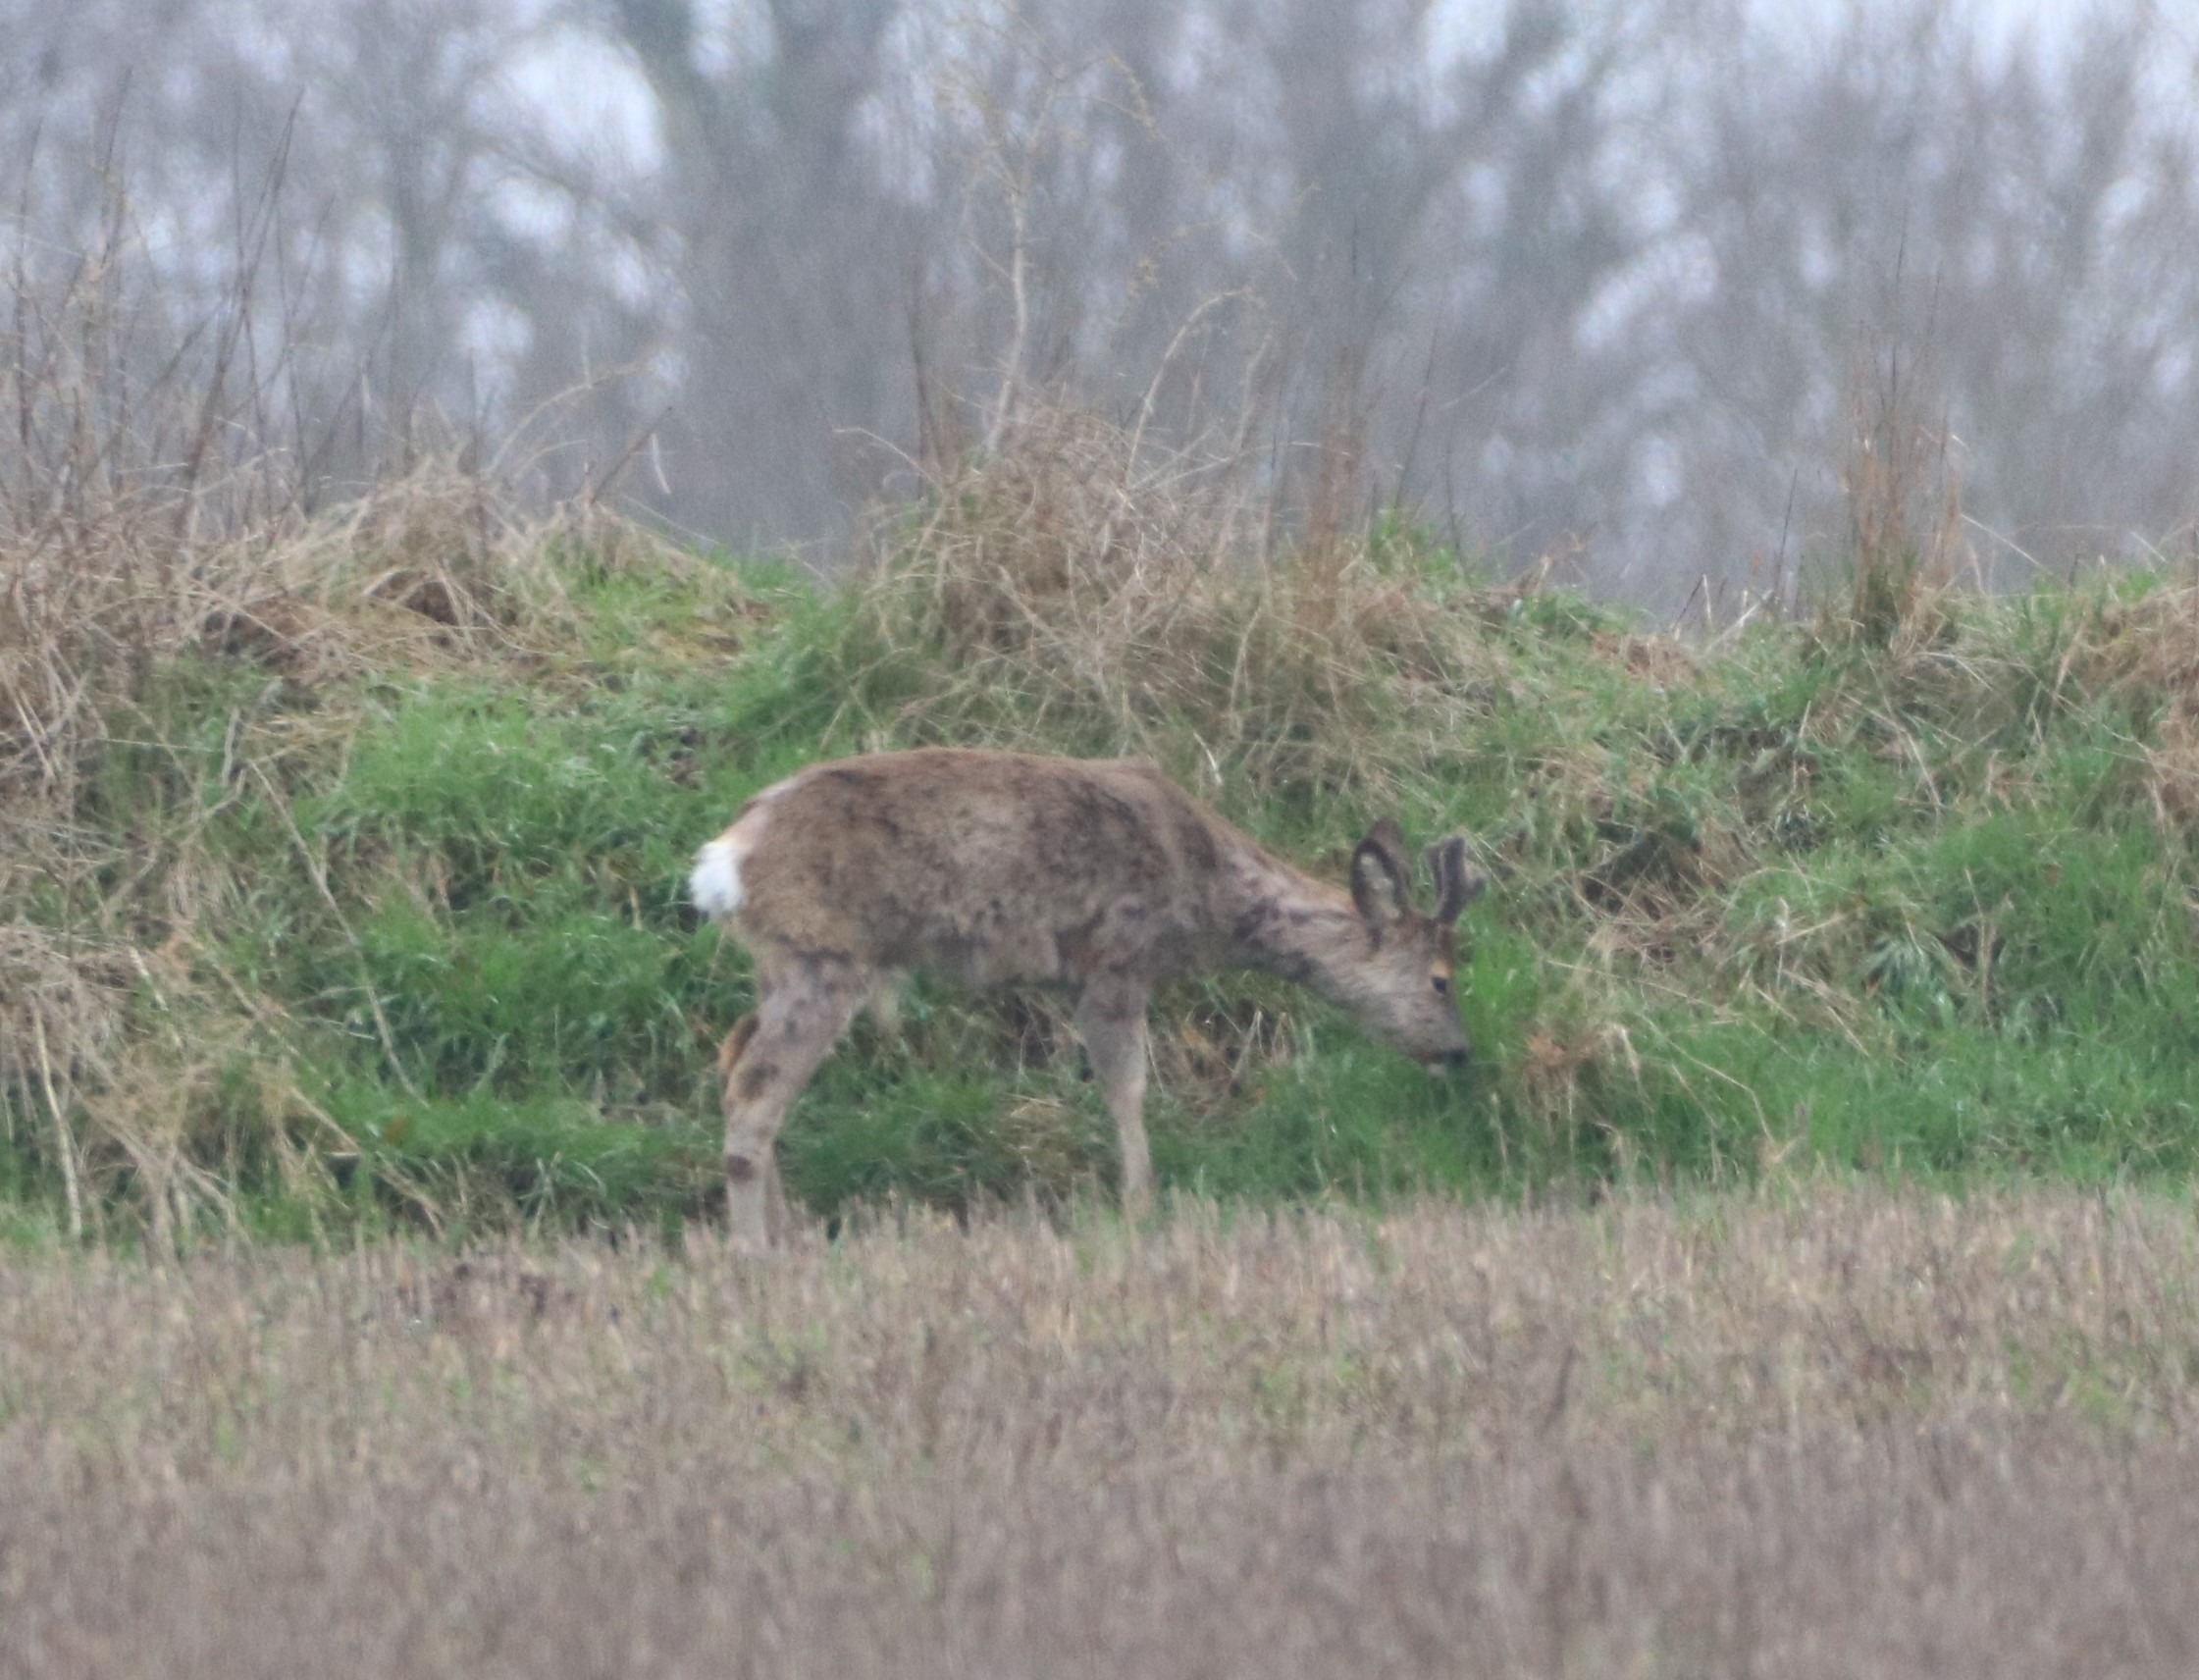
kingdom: Animalia
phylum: Chordata
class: Mammalia
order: Artiodactyla
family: Cervidae
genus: Capreolus
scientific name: Capreolus capreolus
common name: Rådyr
